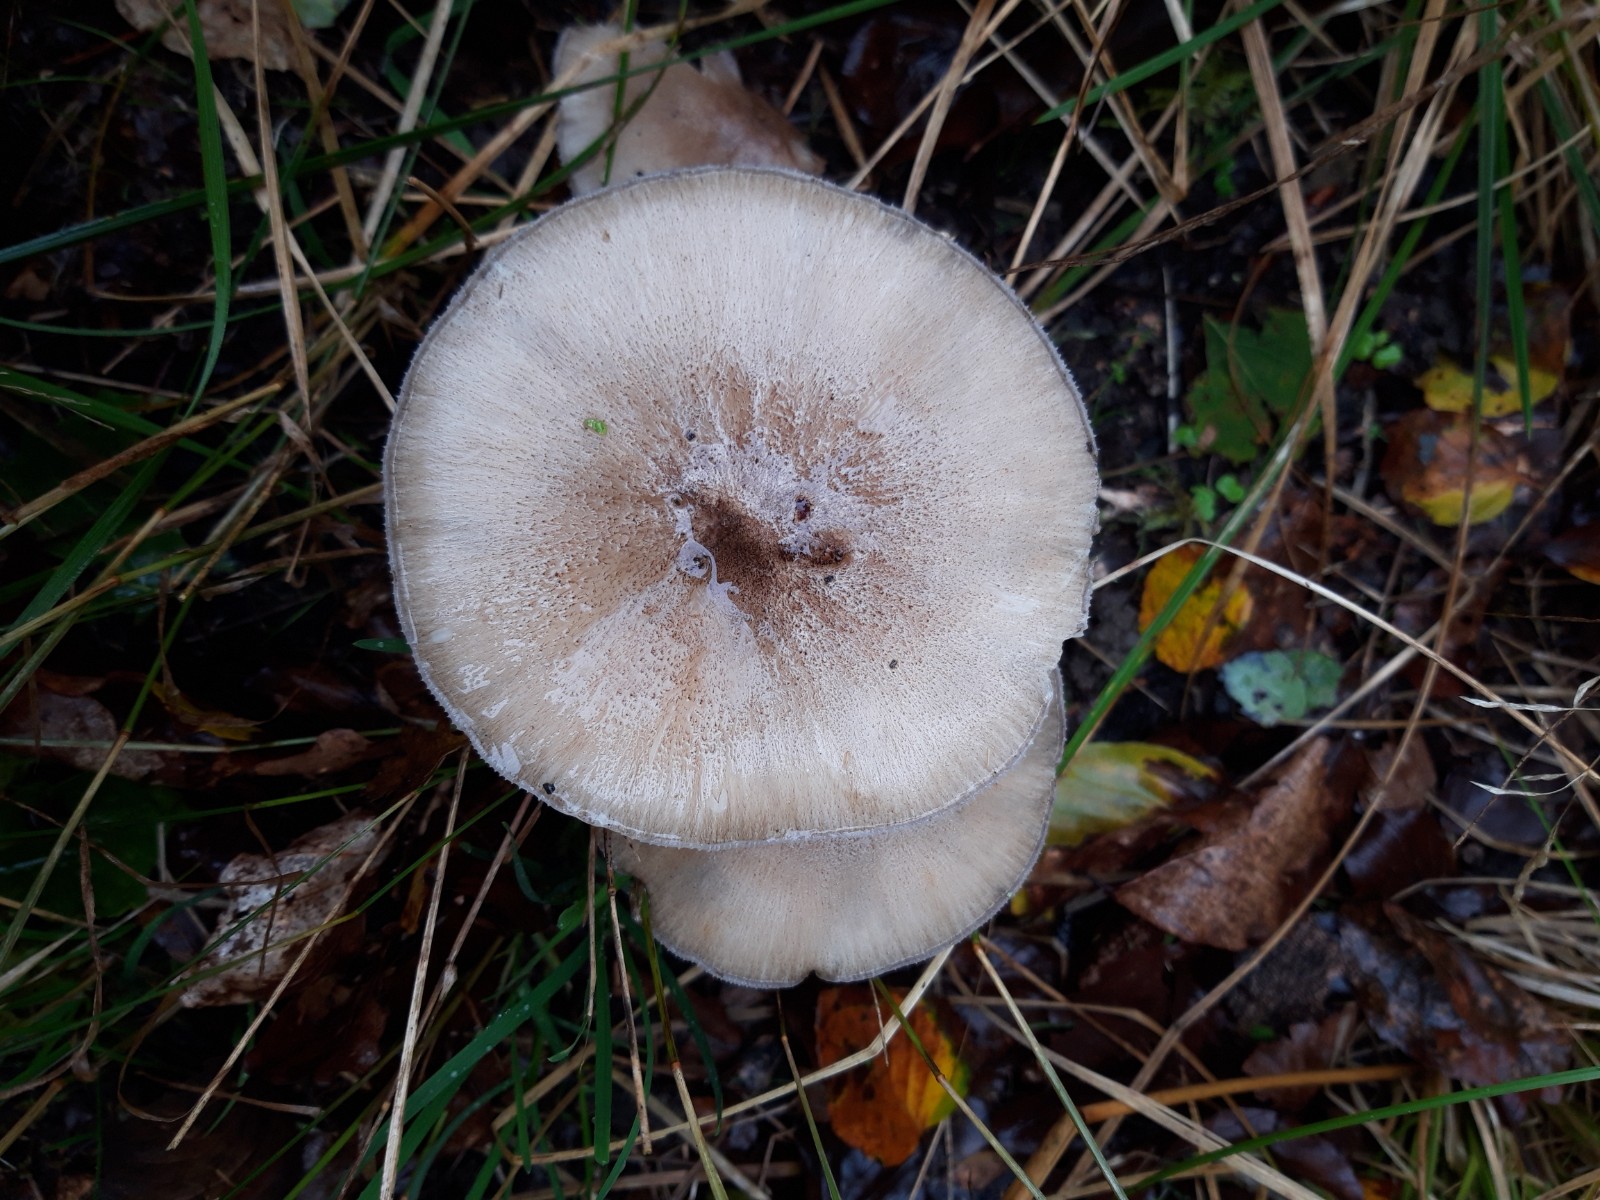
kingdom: Fungi
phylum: Basidiomycota
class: Agaricomycetes
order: Agaricales
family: Tricholomataceae
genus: Megacollybia
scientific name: Megacollybia platyphylla
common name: bredbladet væbnerhat
